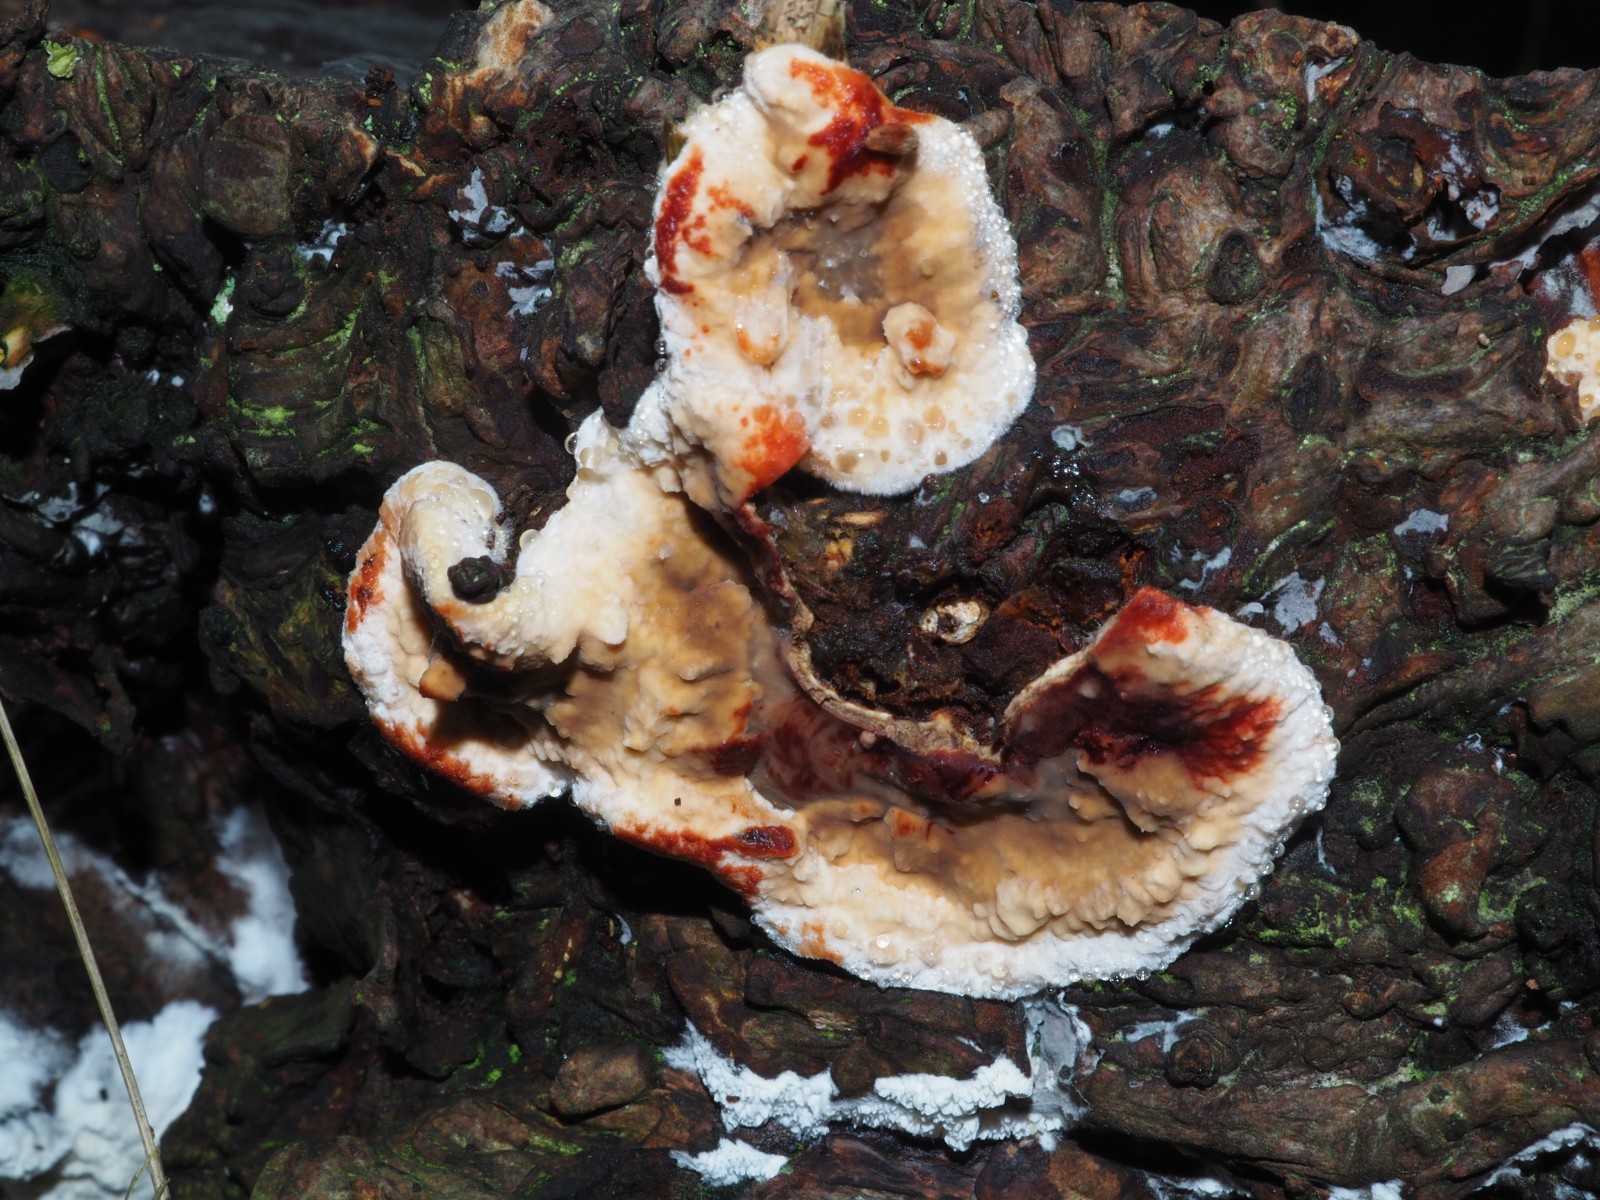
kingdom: Fungi
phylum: Basidiomycota
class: Agaricomycetes
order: Russulales
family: Stereaceae
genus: Stereum
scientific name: Stereum hirsutum
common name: håret lædersvamp
